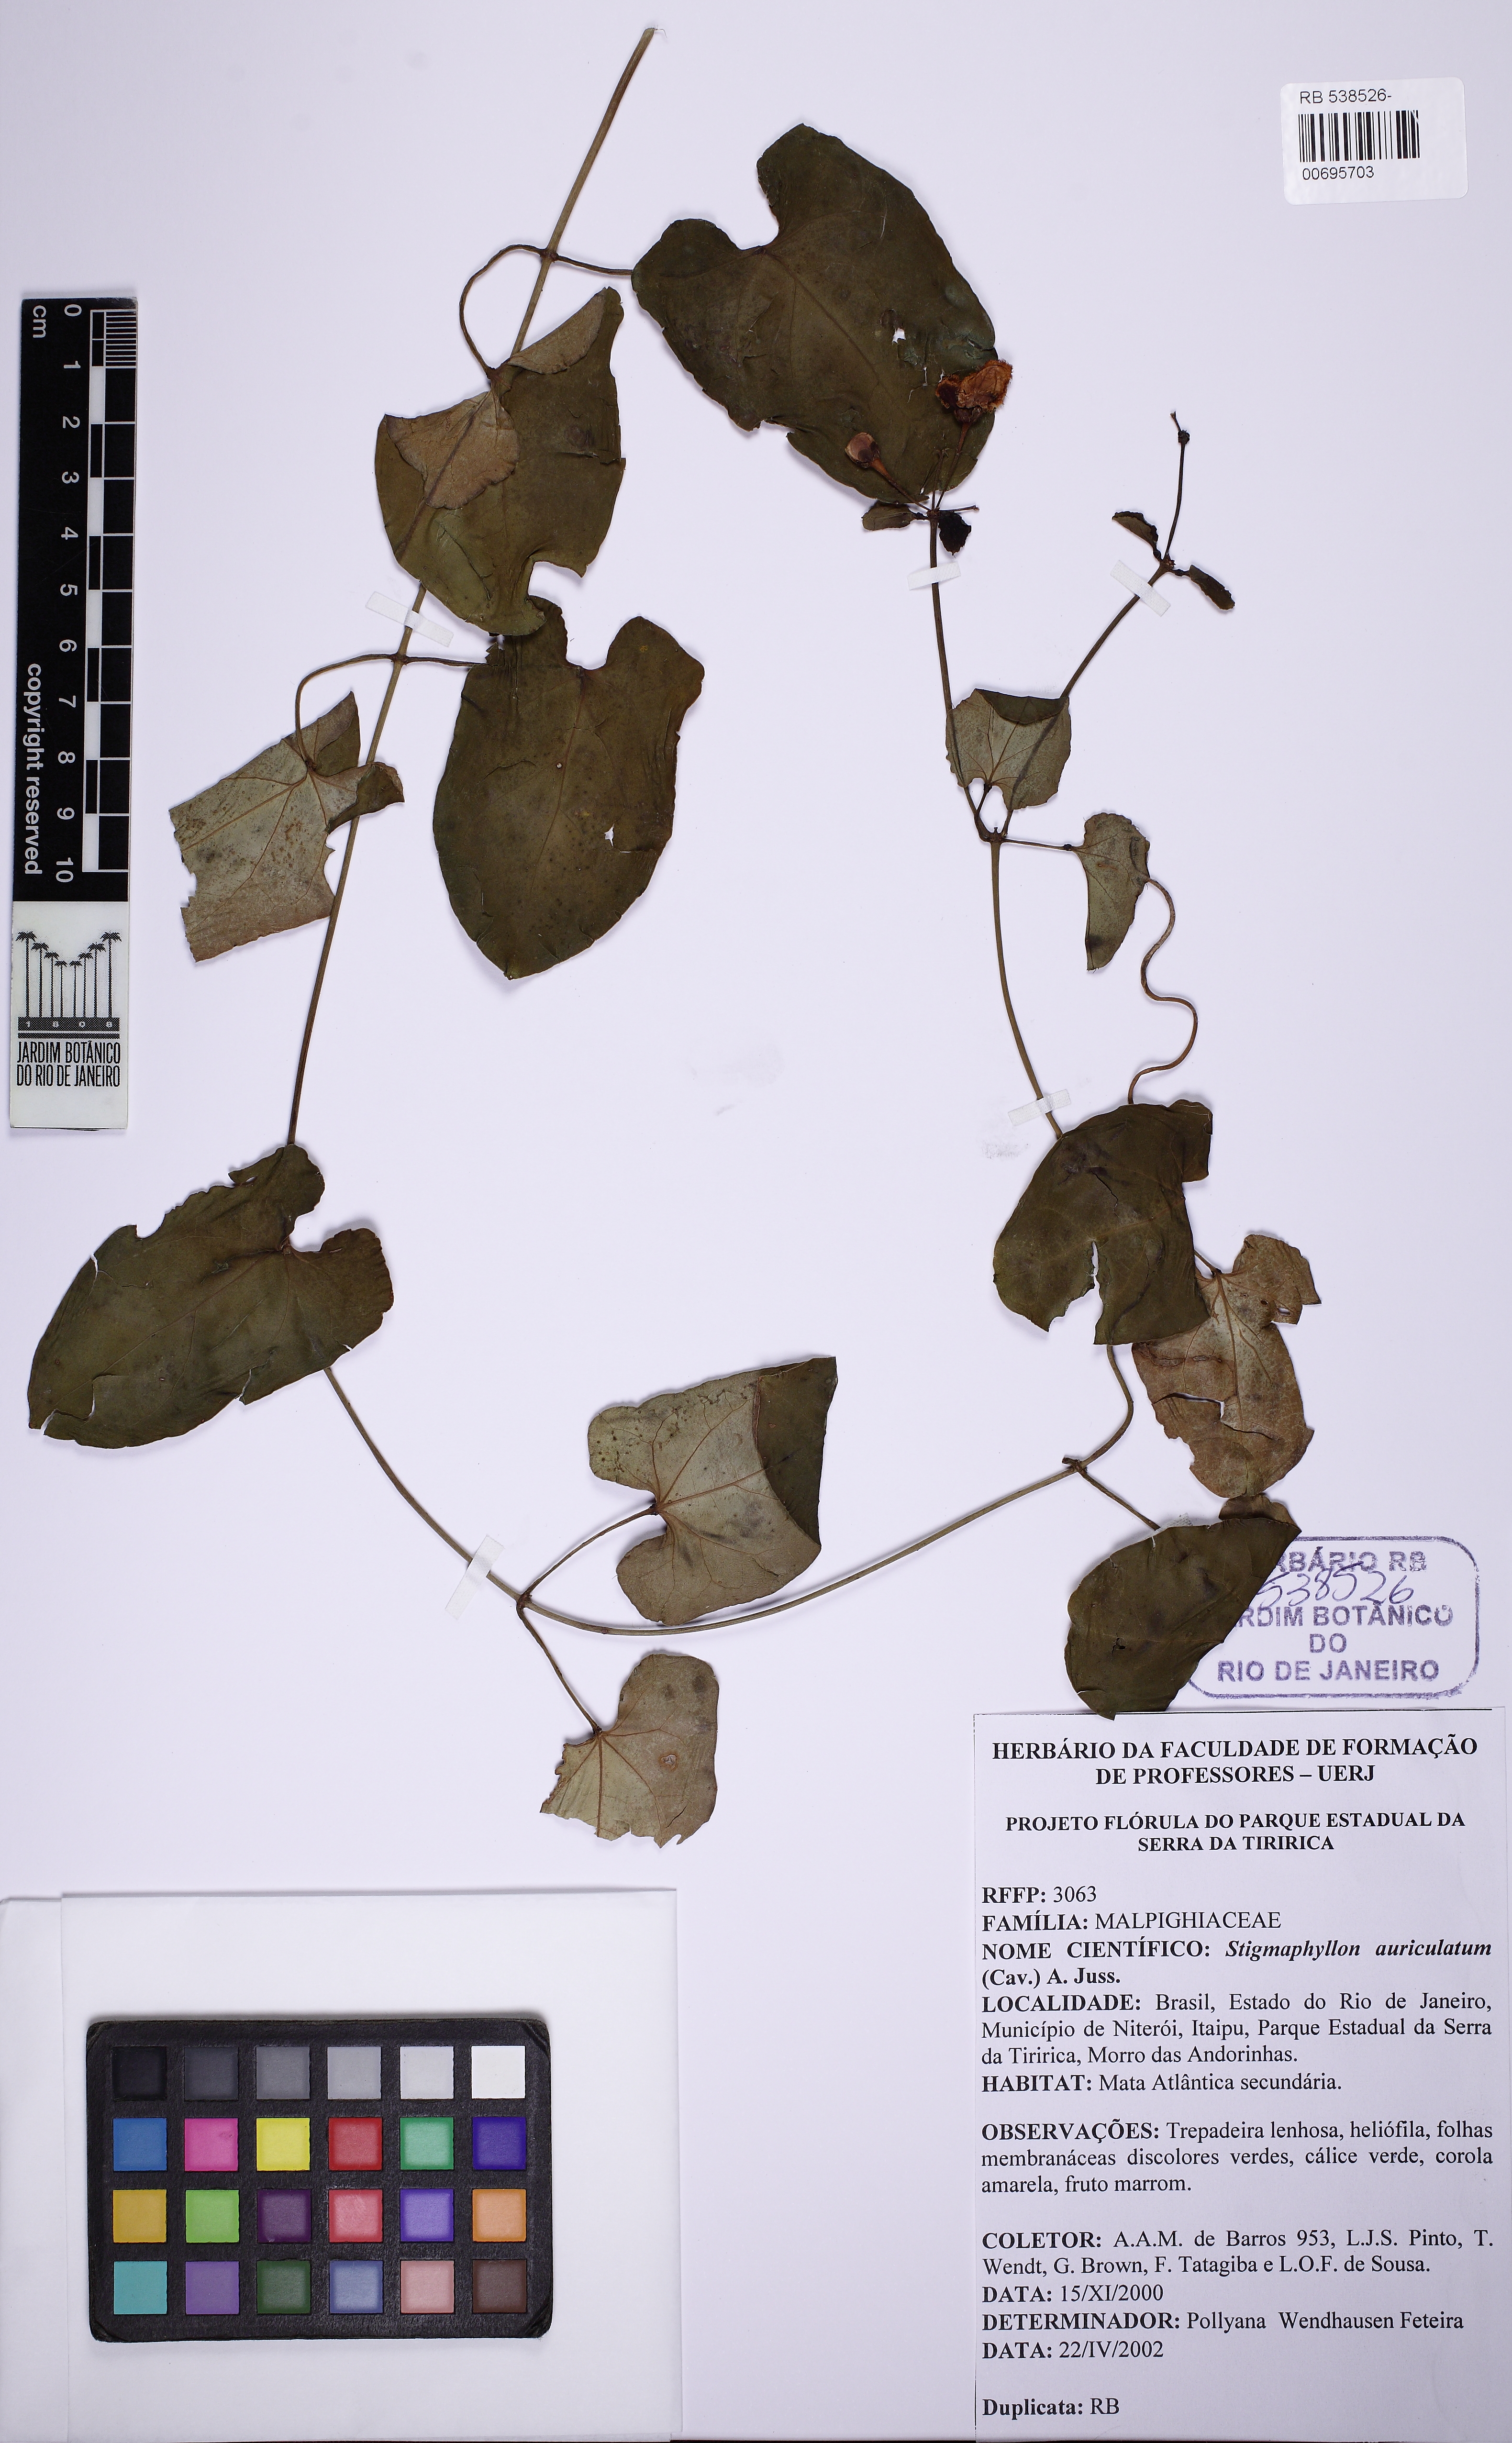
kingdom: Plantae
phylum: Tracheophyta
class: Magnoliopsida
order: Malpighiales
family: Malpighiaceae
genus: Stigmaphyllon
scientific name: Stigmaphyllon auriculatum
